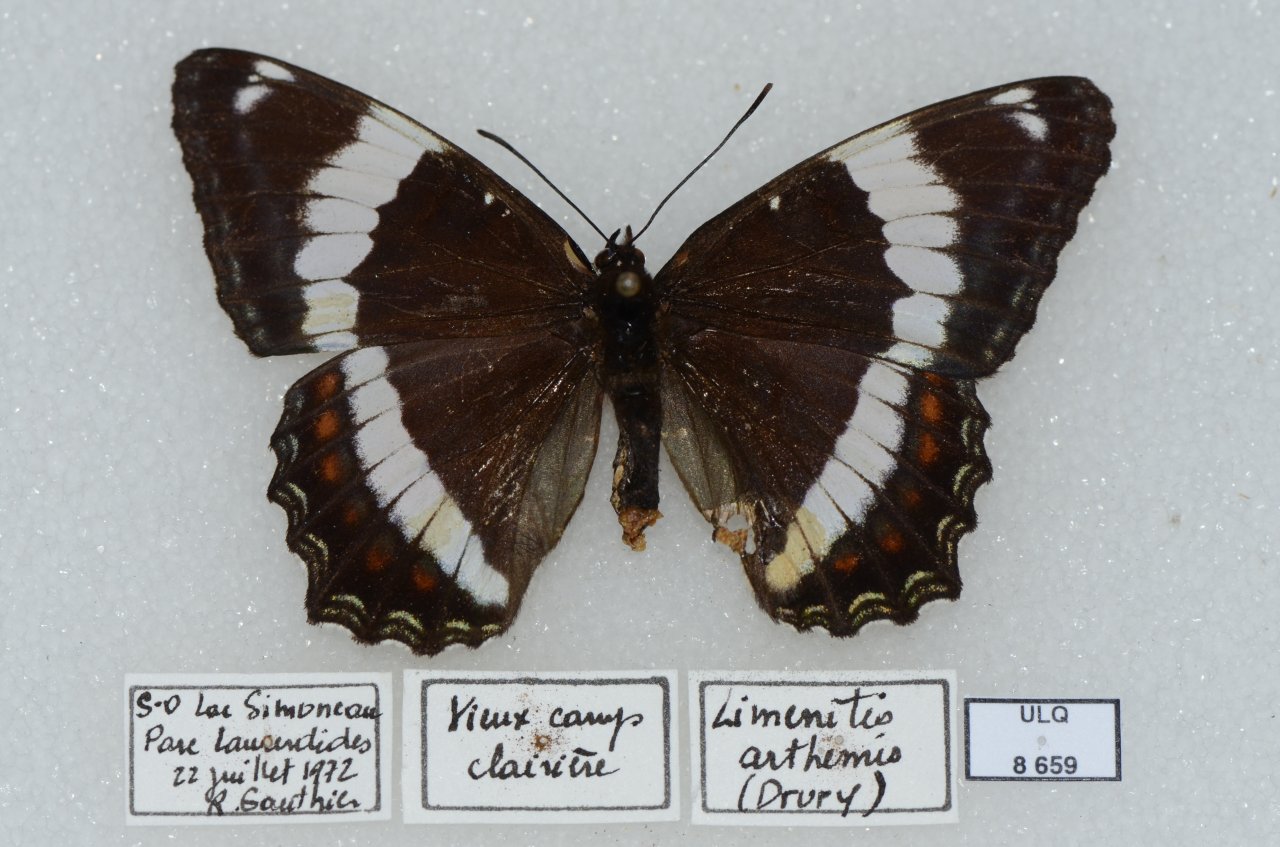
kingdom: Animalia
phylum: Arthropoda
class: Insecta
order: Lepidoptera
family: Nymphalidae
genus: Limenitis
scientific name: Limenitis arthemis
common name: Red-spotted Admiral
